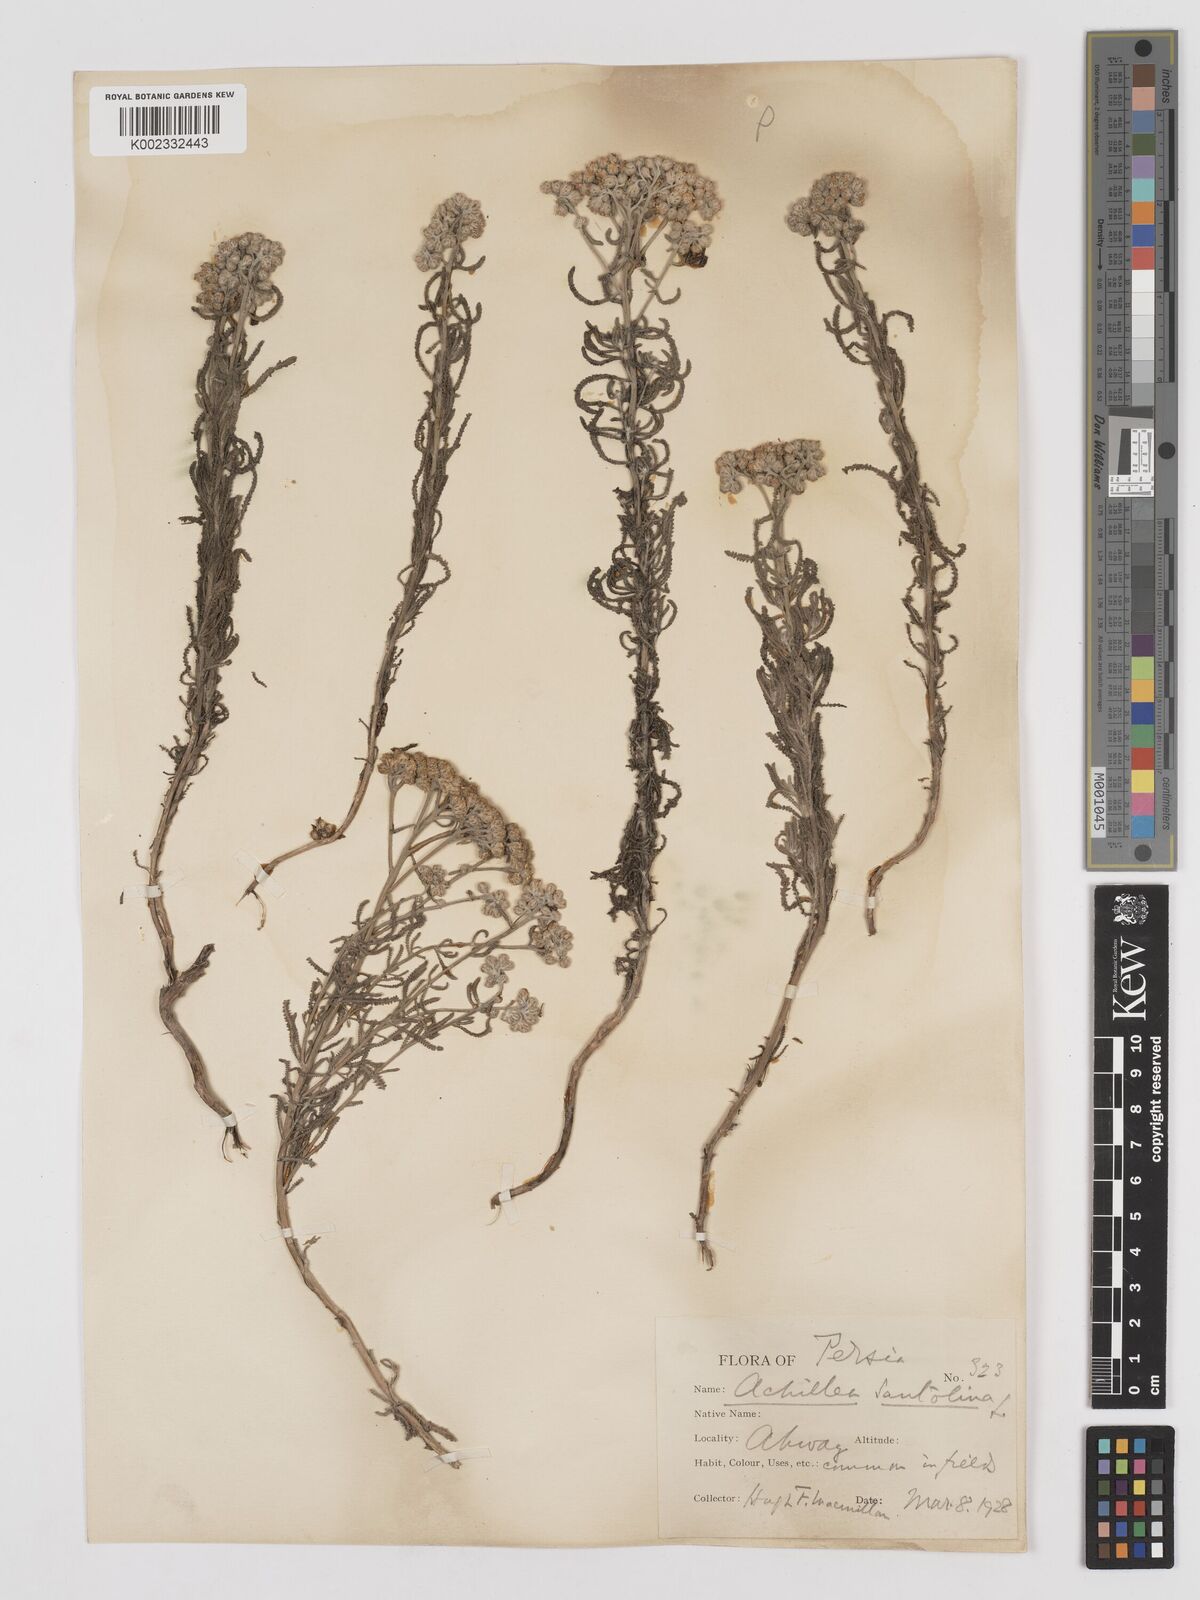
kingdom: Plantae
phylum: Tracheophyta
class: Magnoliopsida
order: Asterales
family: Asteraceae
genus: Achillea
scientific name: Achillea tenuifolia
